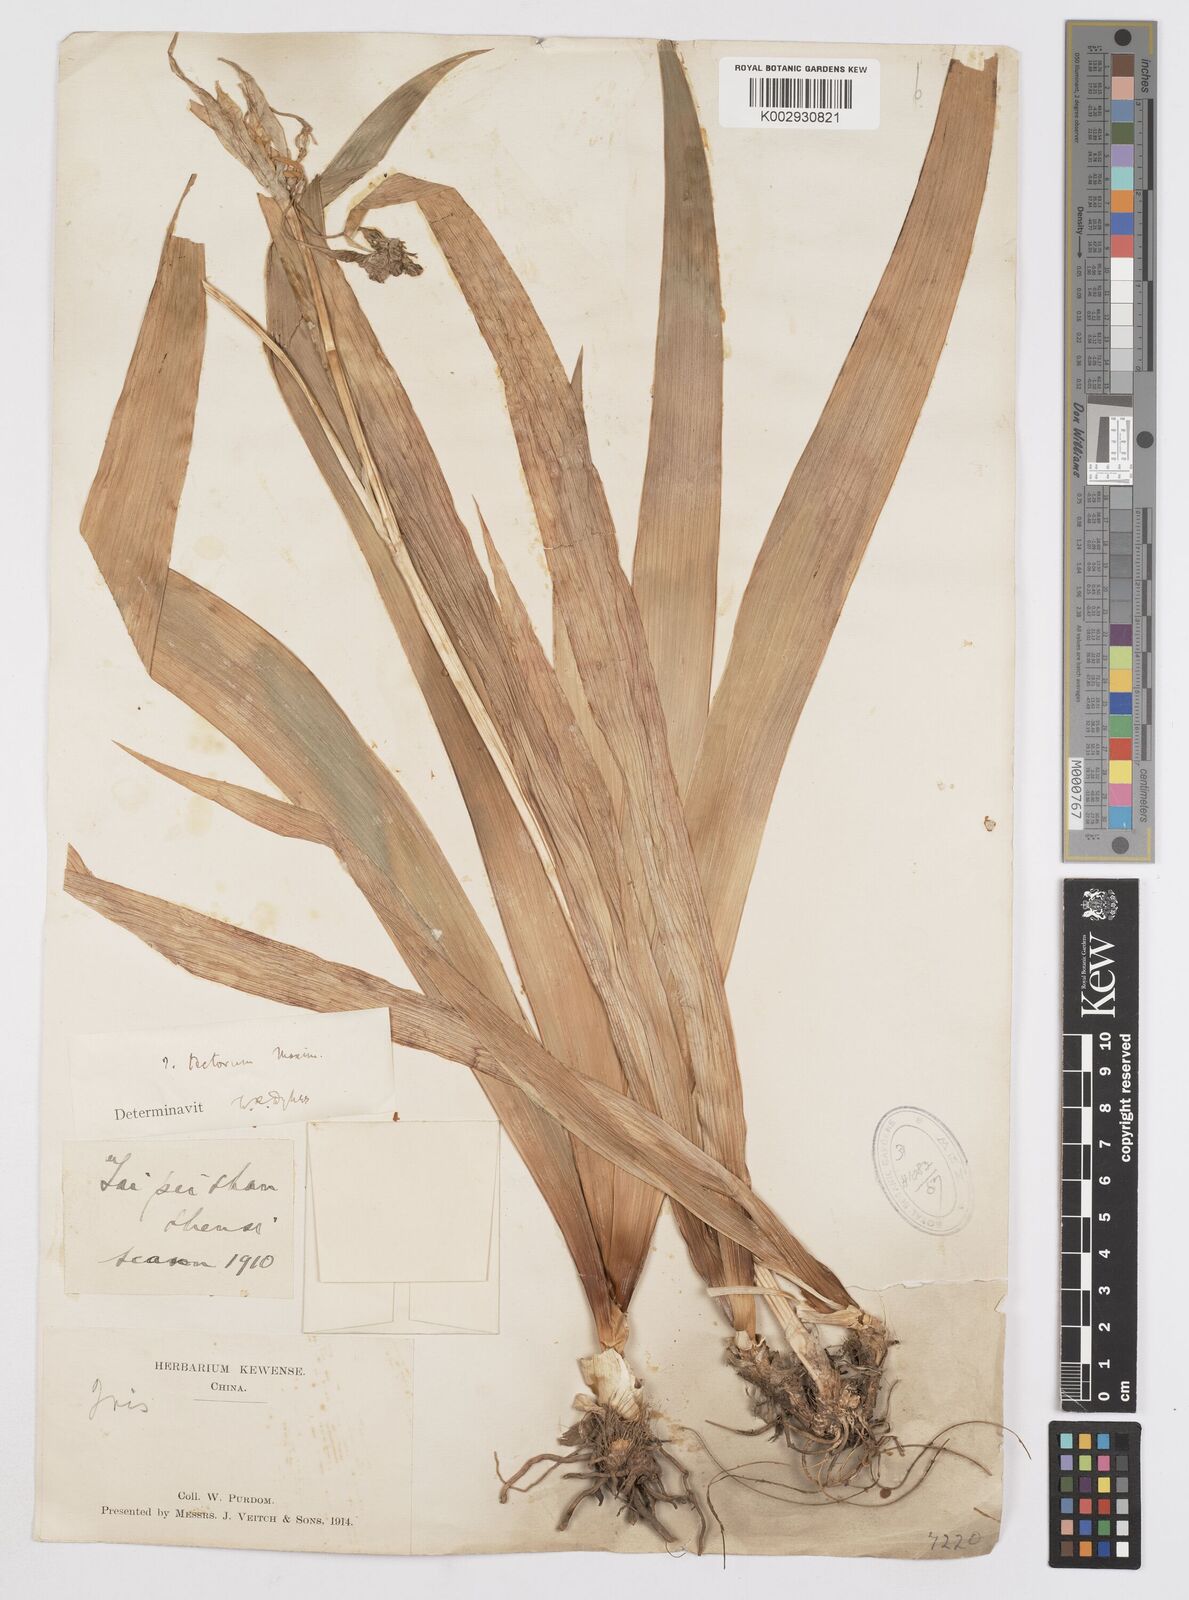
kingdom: Plantae
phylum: Tracheophyta
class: Liliopsida
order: Asparagales
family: Iridaceae
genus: Iris
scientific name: Iris tectorum
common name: Wall iris
